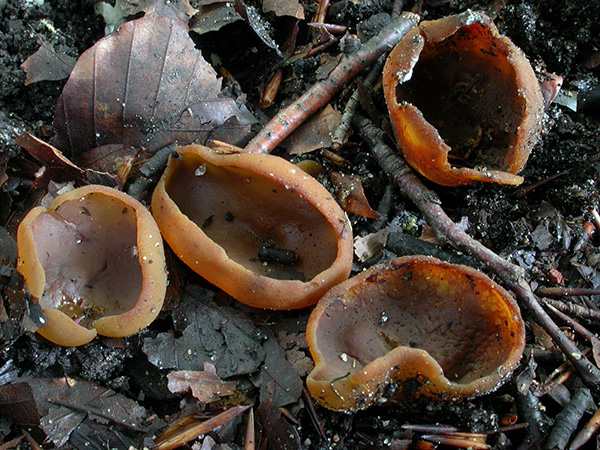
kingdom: Fungi
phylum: Ascomycota
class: Pezizomycetes
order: Pezizales
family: Pezizaceae
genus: Paragalactinia
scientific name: Paragalactinia michelii
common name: gulkødet bægersvamp
